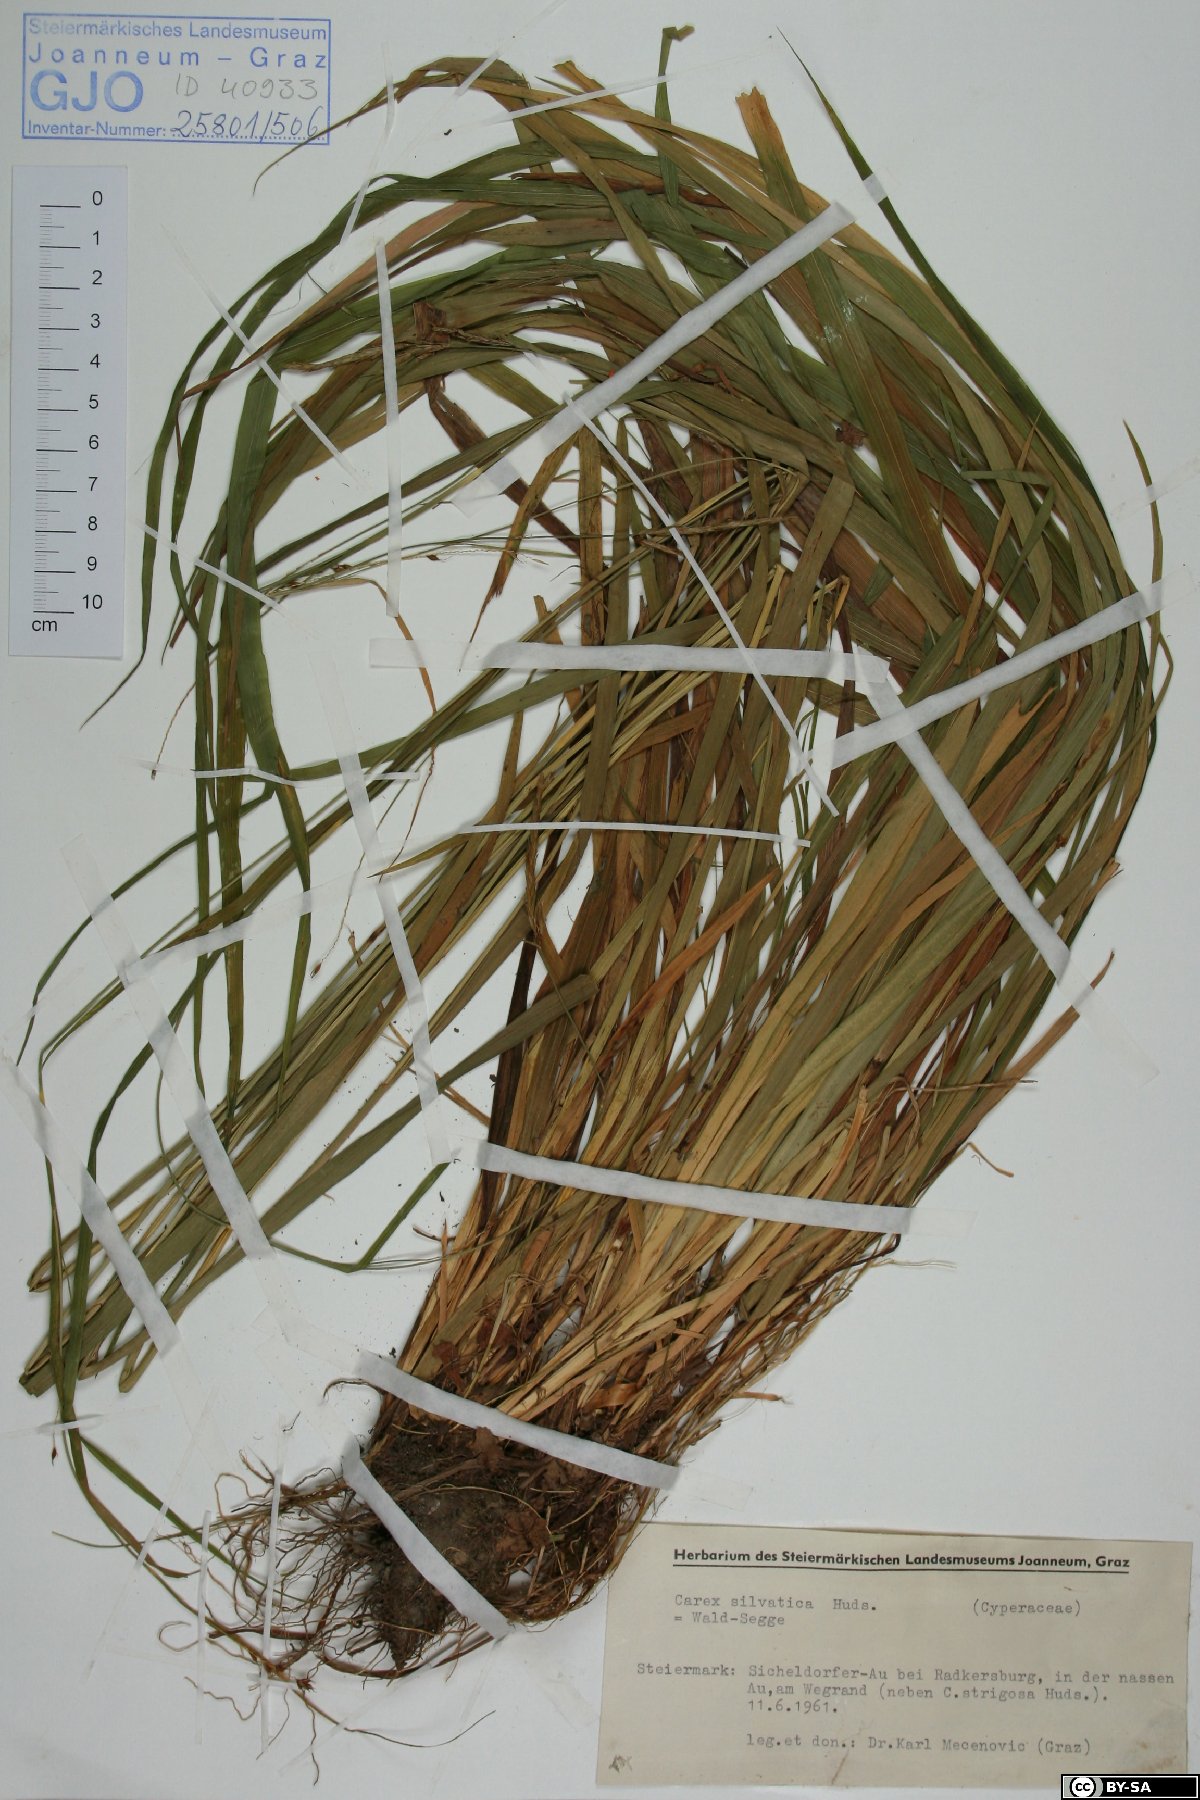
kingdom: Plantae
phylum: Tracheophyta
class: Liliopsida
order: Poales
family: Cyperaceae
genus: Carex
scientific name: Carex sylvatica
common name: Wood-sedge
